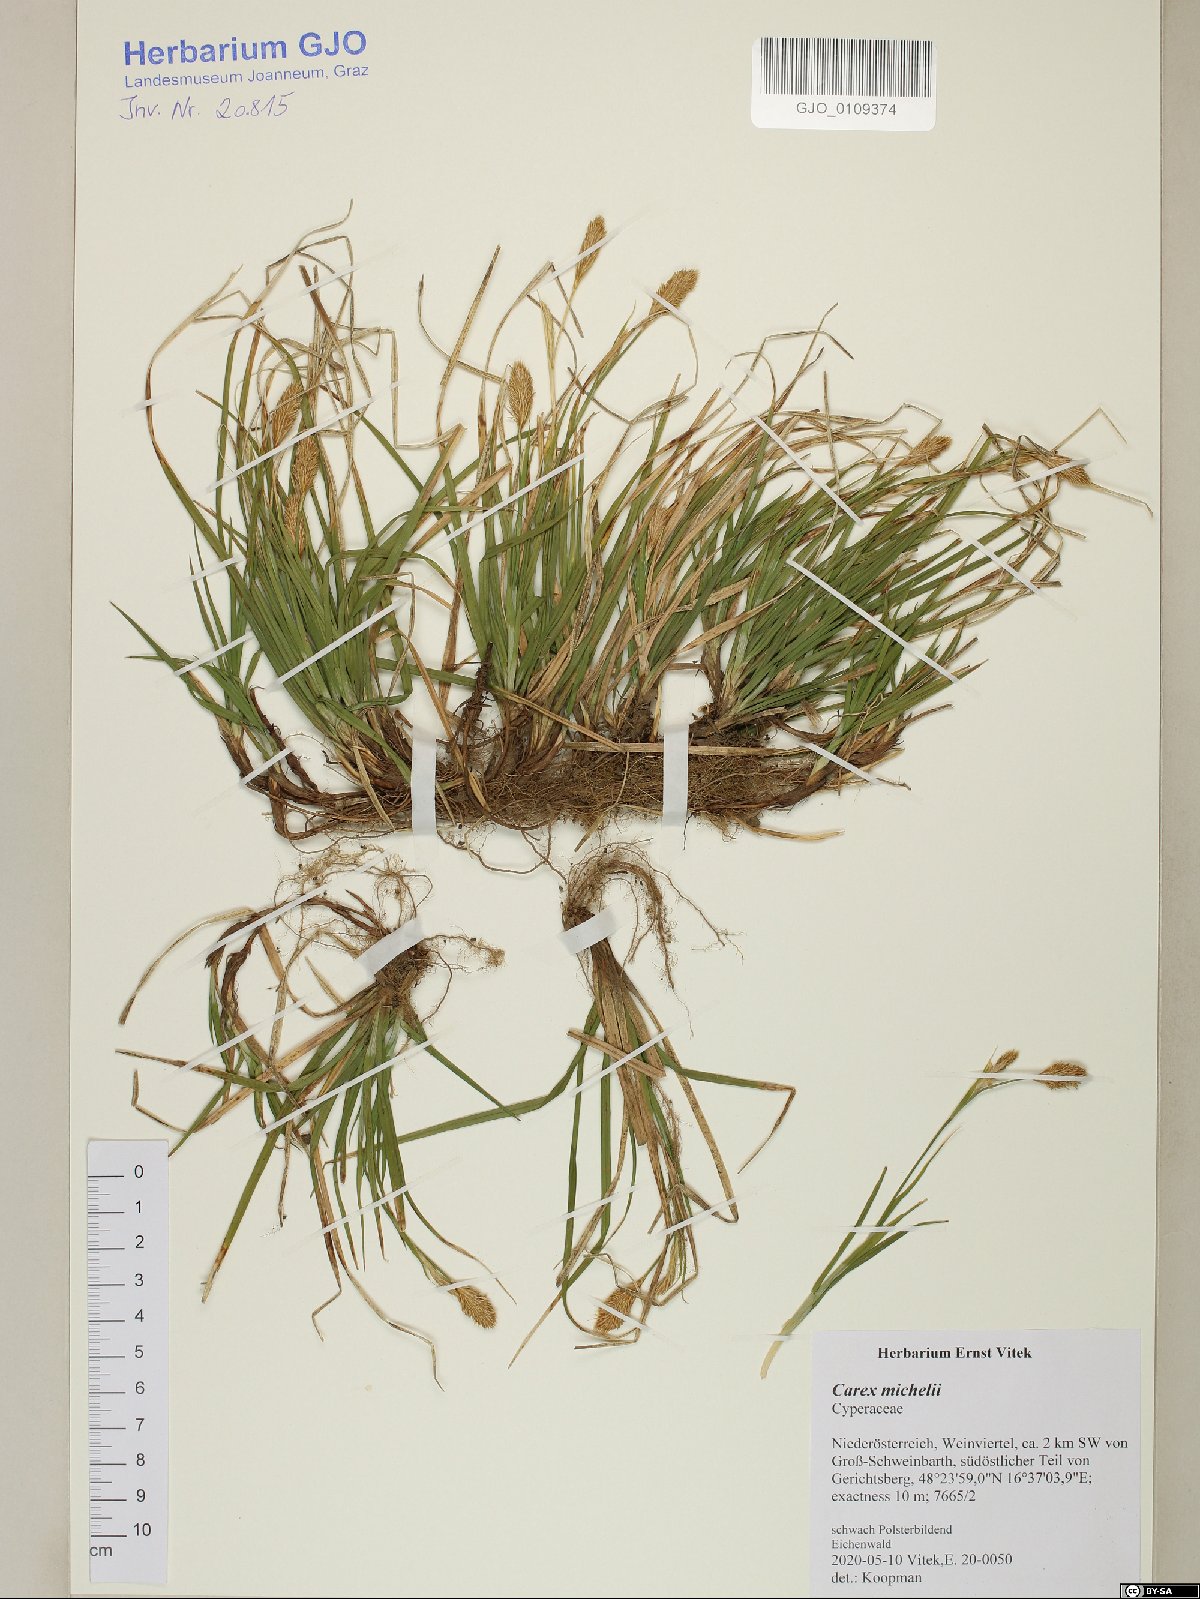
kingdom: Plantae
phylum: Tracheophyta
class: Liliopsida
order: Poales
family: Cyperaceae
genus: Carex
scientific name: Carex michelii
